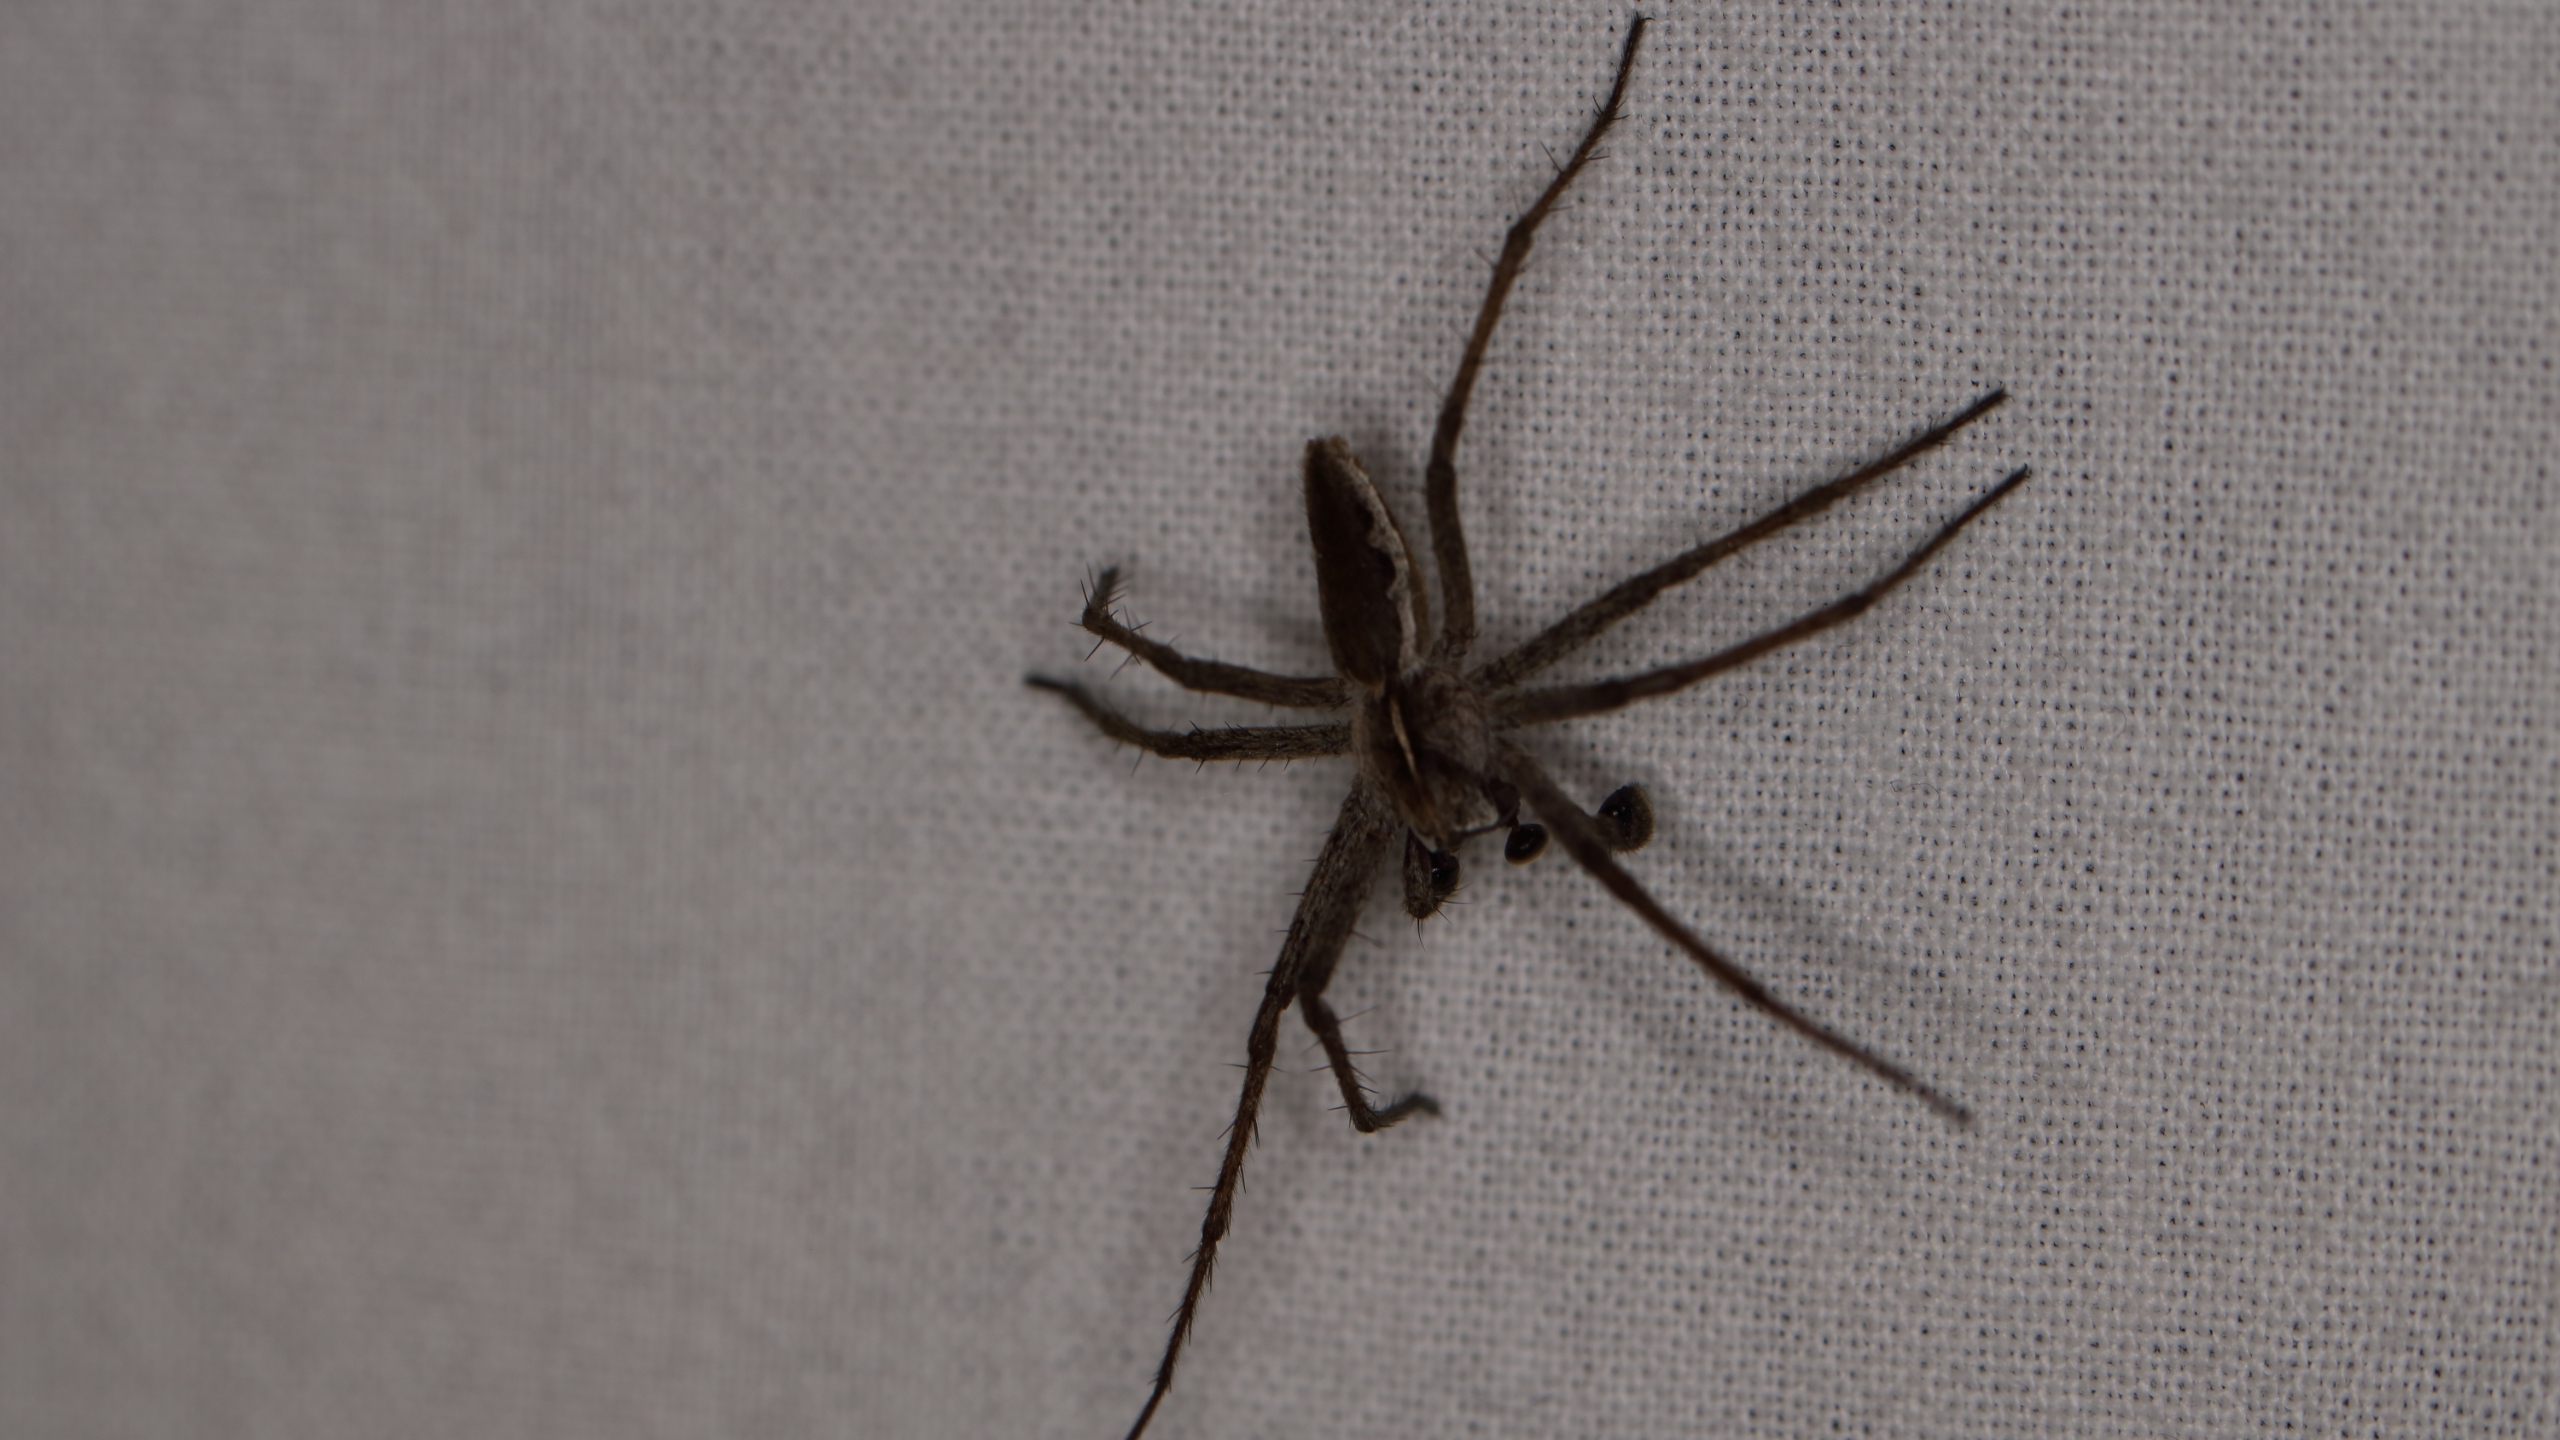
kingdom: Animalia
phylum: Arthropoda
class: Arachnida
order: Araneae
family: Pisauridae
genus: Pisaura
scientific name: Pisaura mirabilis
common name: Almindelig rovedderkop
